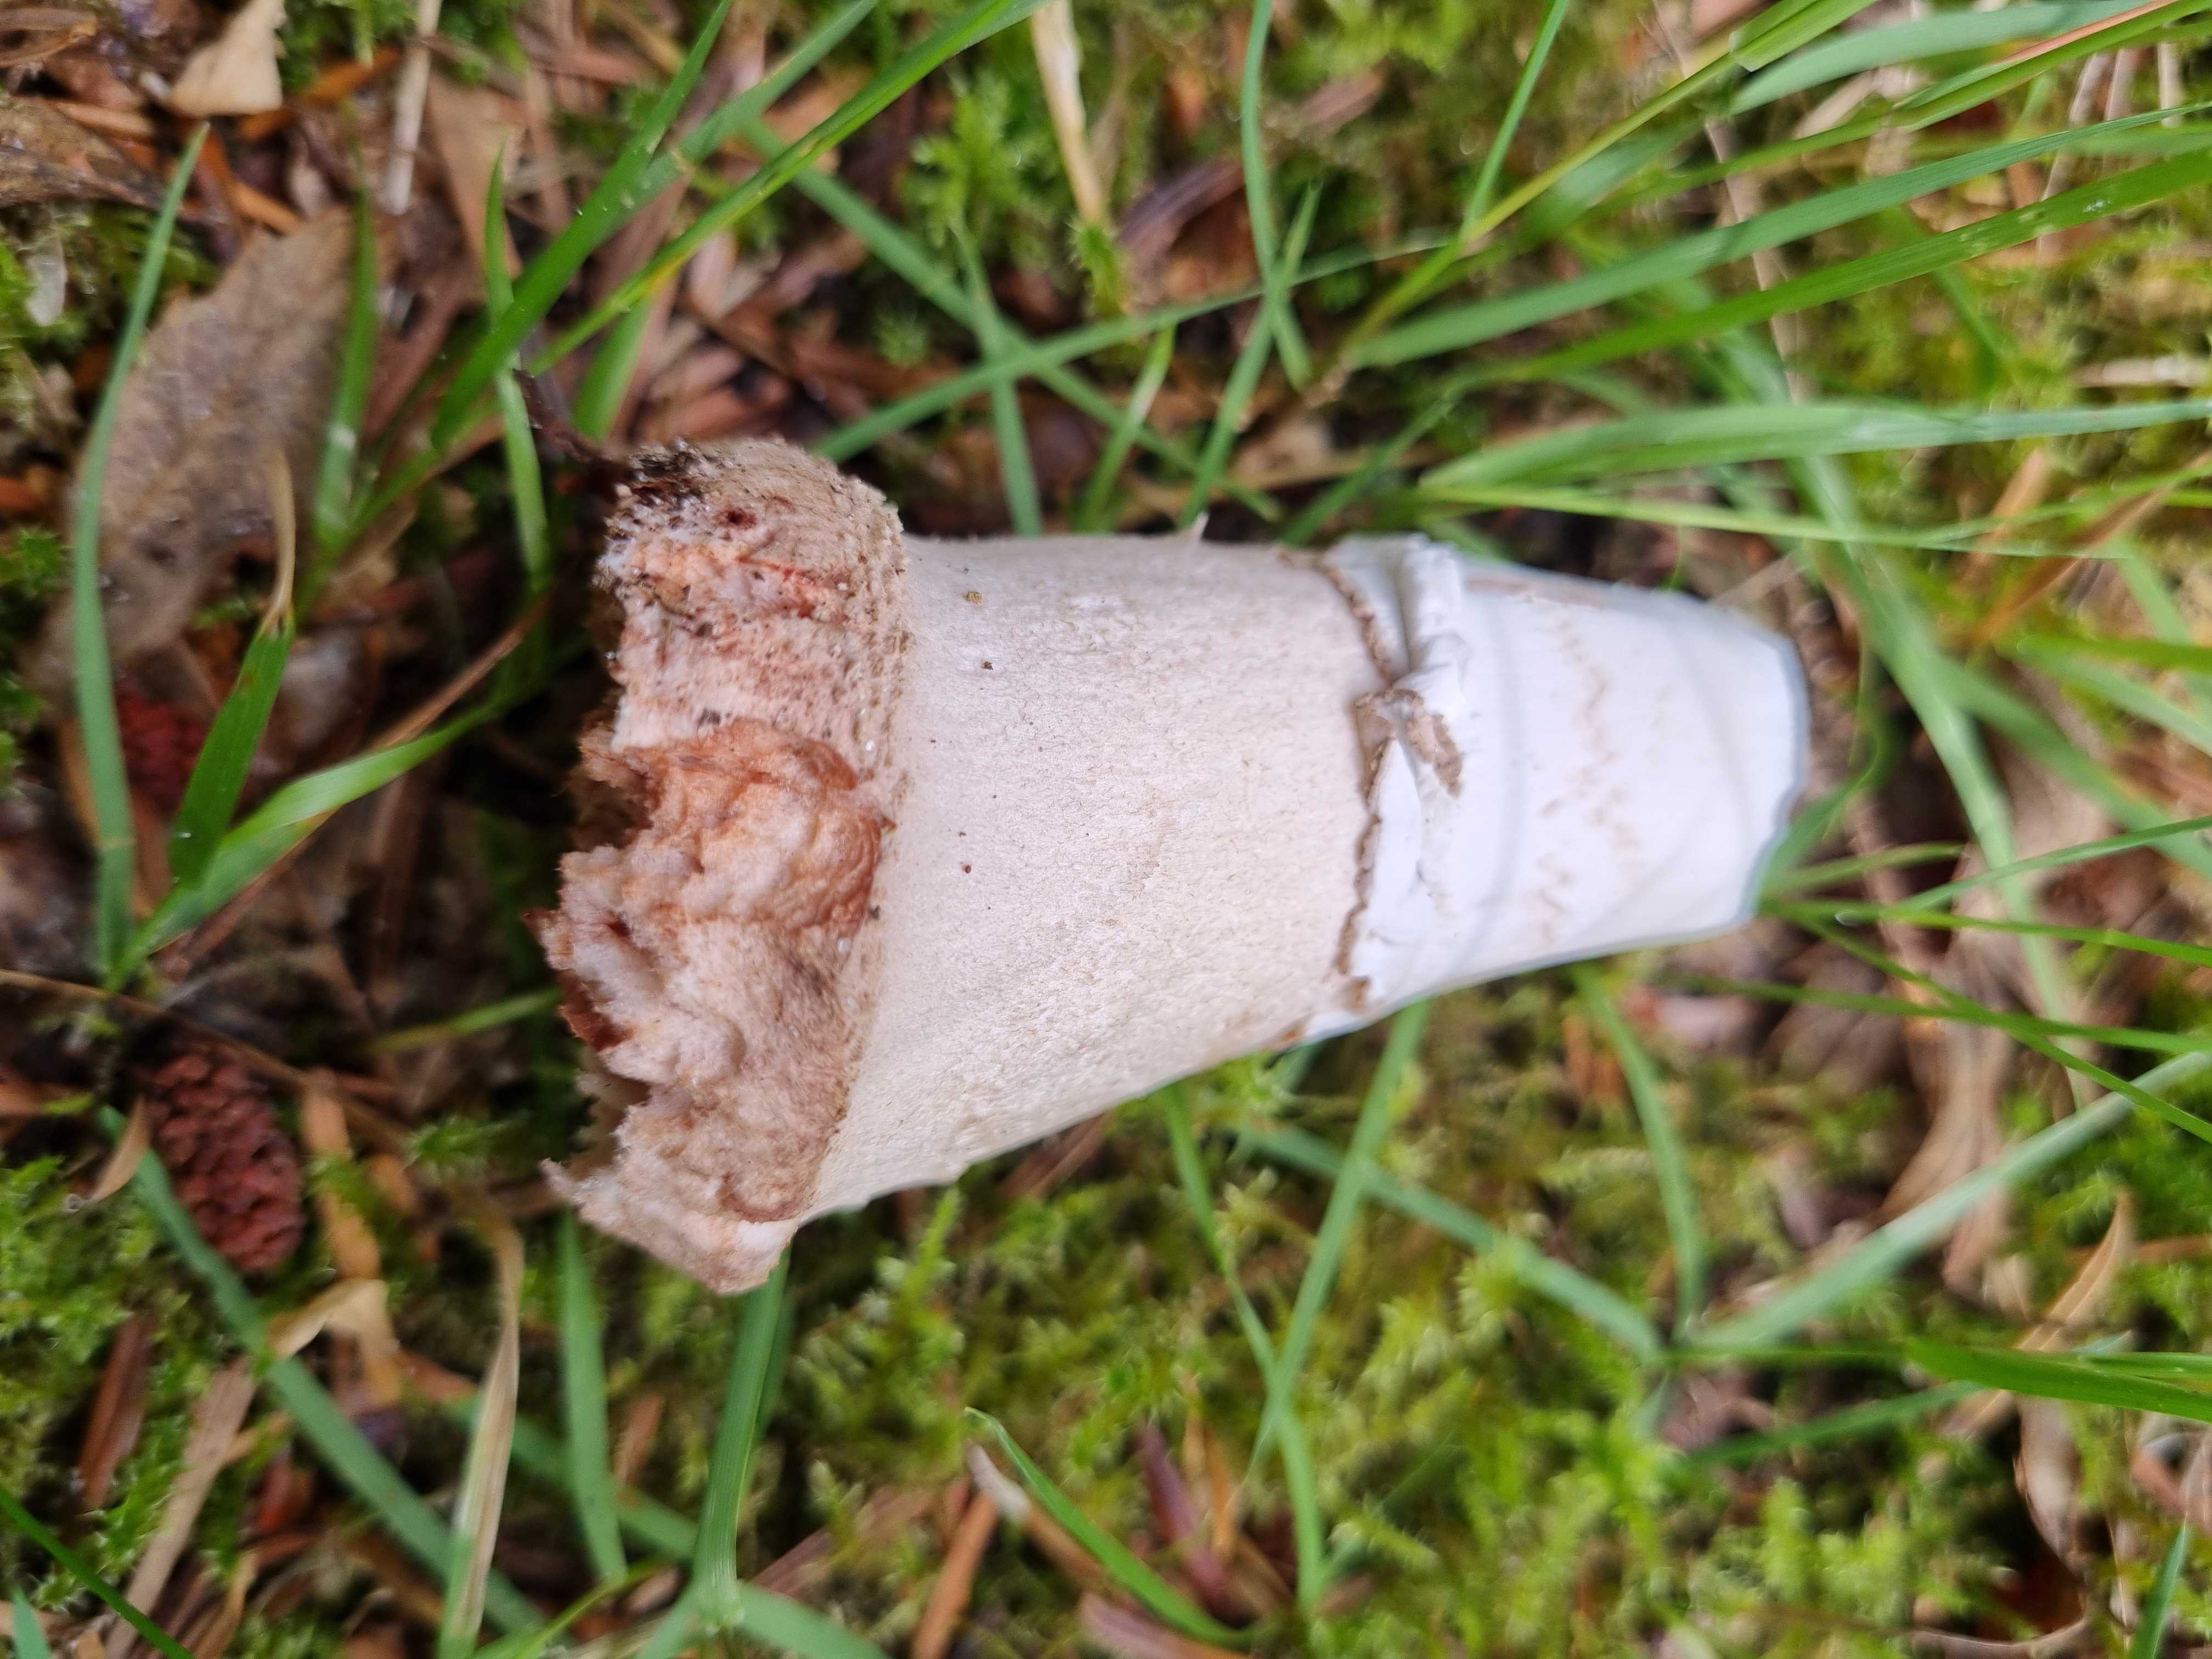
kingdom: Fungi
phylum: Basidiomycota
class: Agaricomycetes
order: Agaricales
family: Amanitaceae
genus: Amanita
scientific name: Amanita rubescens
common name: rødmende fluesvamp
